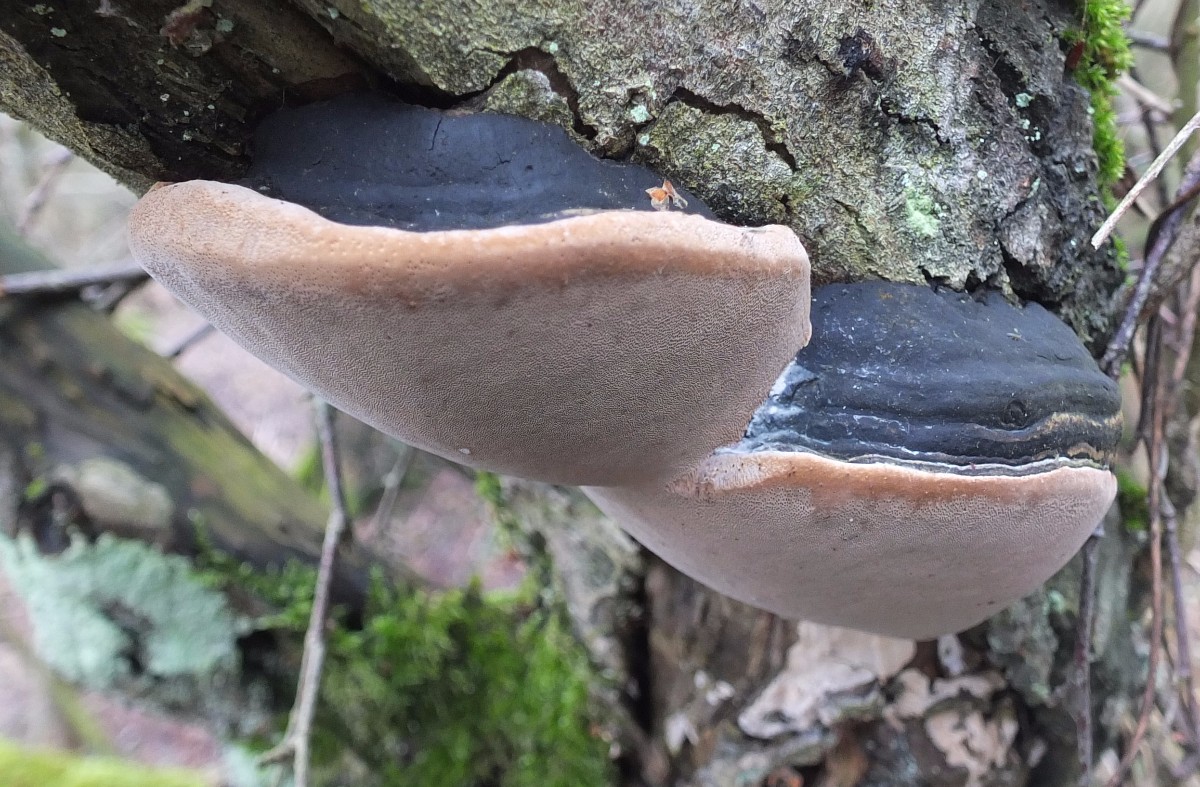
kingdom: Fungi
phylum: Basidiomycota
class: Agaricomycetes
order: Hymenochaetales
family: Hymenochaetaceae
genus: Phellinus
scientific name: Phellinus igniarius
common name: almindelig ildporesvamp
